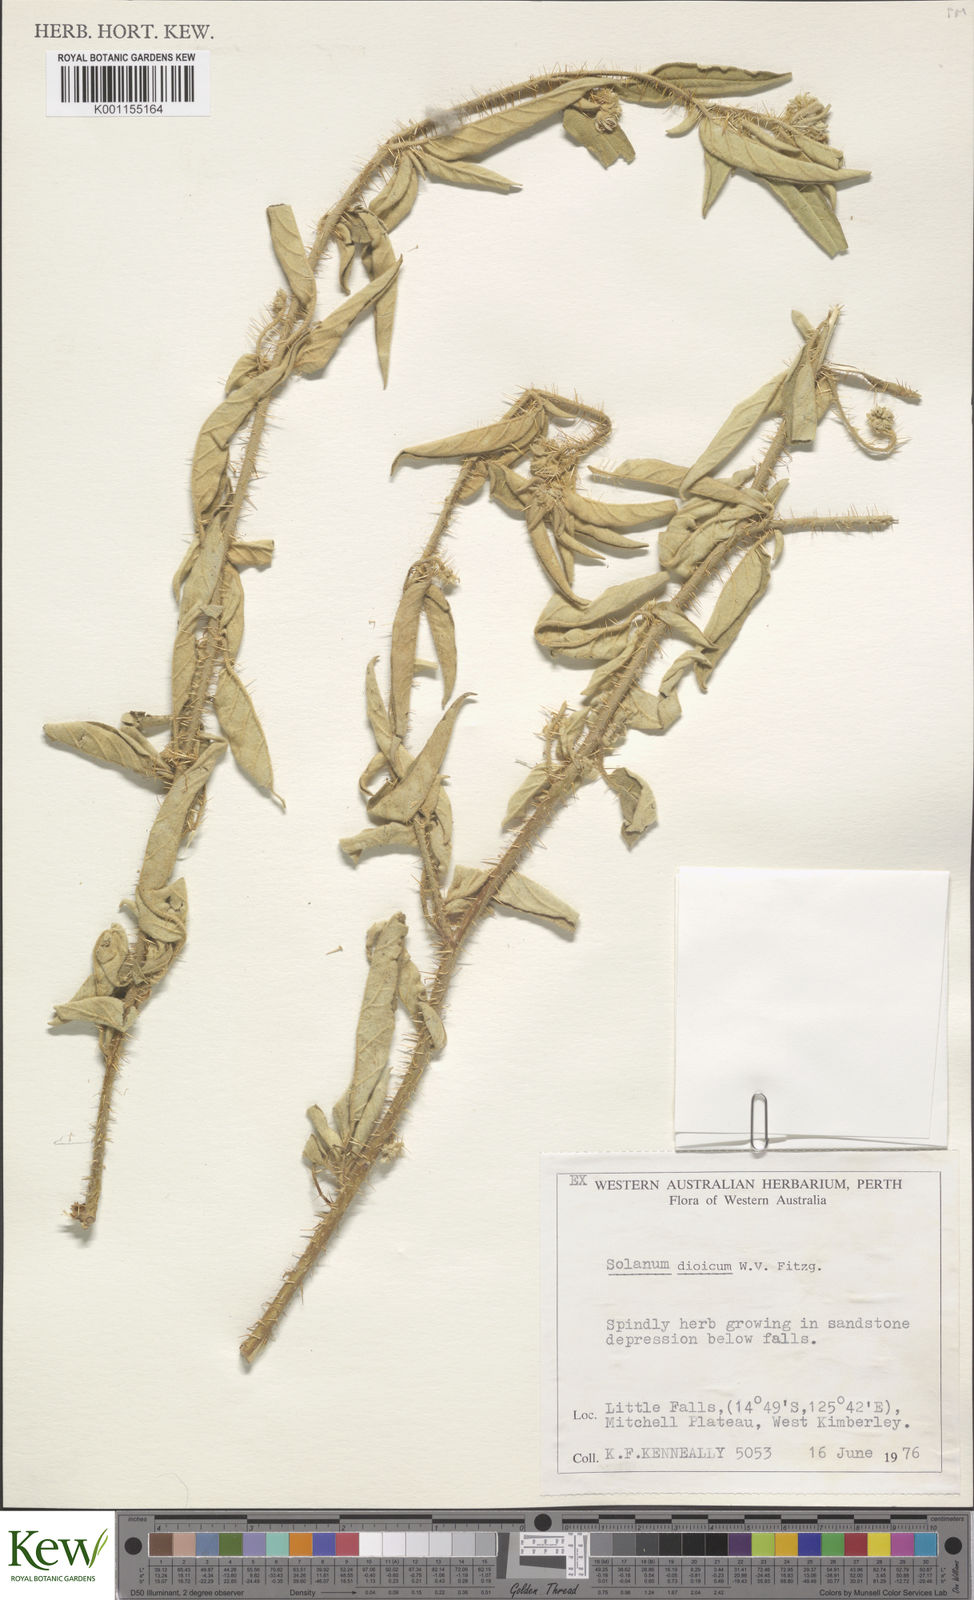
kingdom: Plantae
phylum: Tracheophyta
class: Magnoliopsida
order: Solanales
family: Solanaceae
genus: Solanum
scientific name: Solanum dioicum
